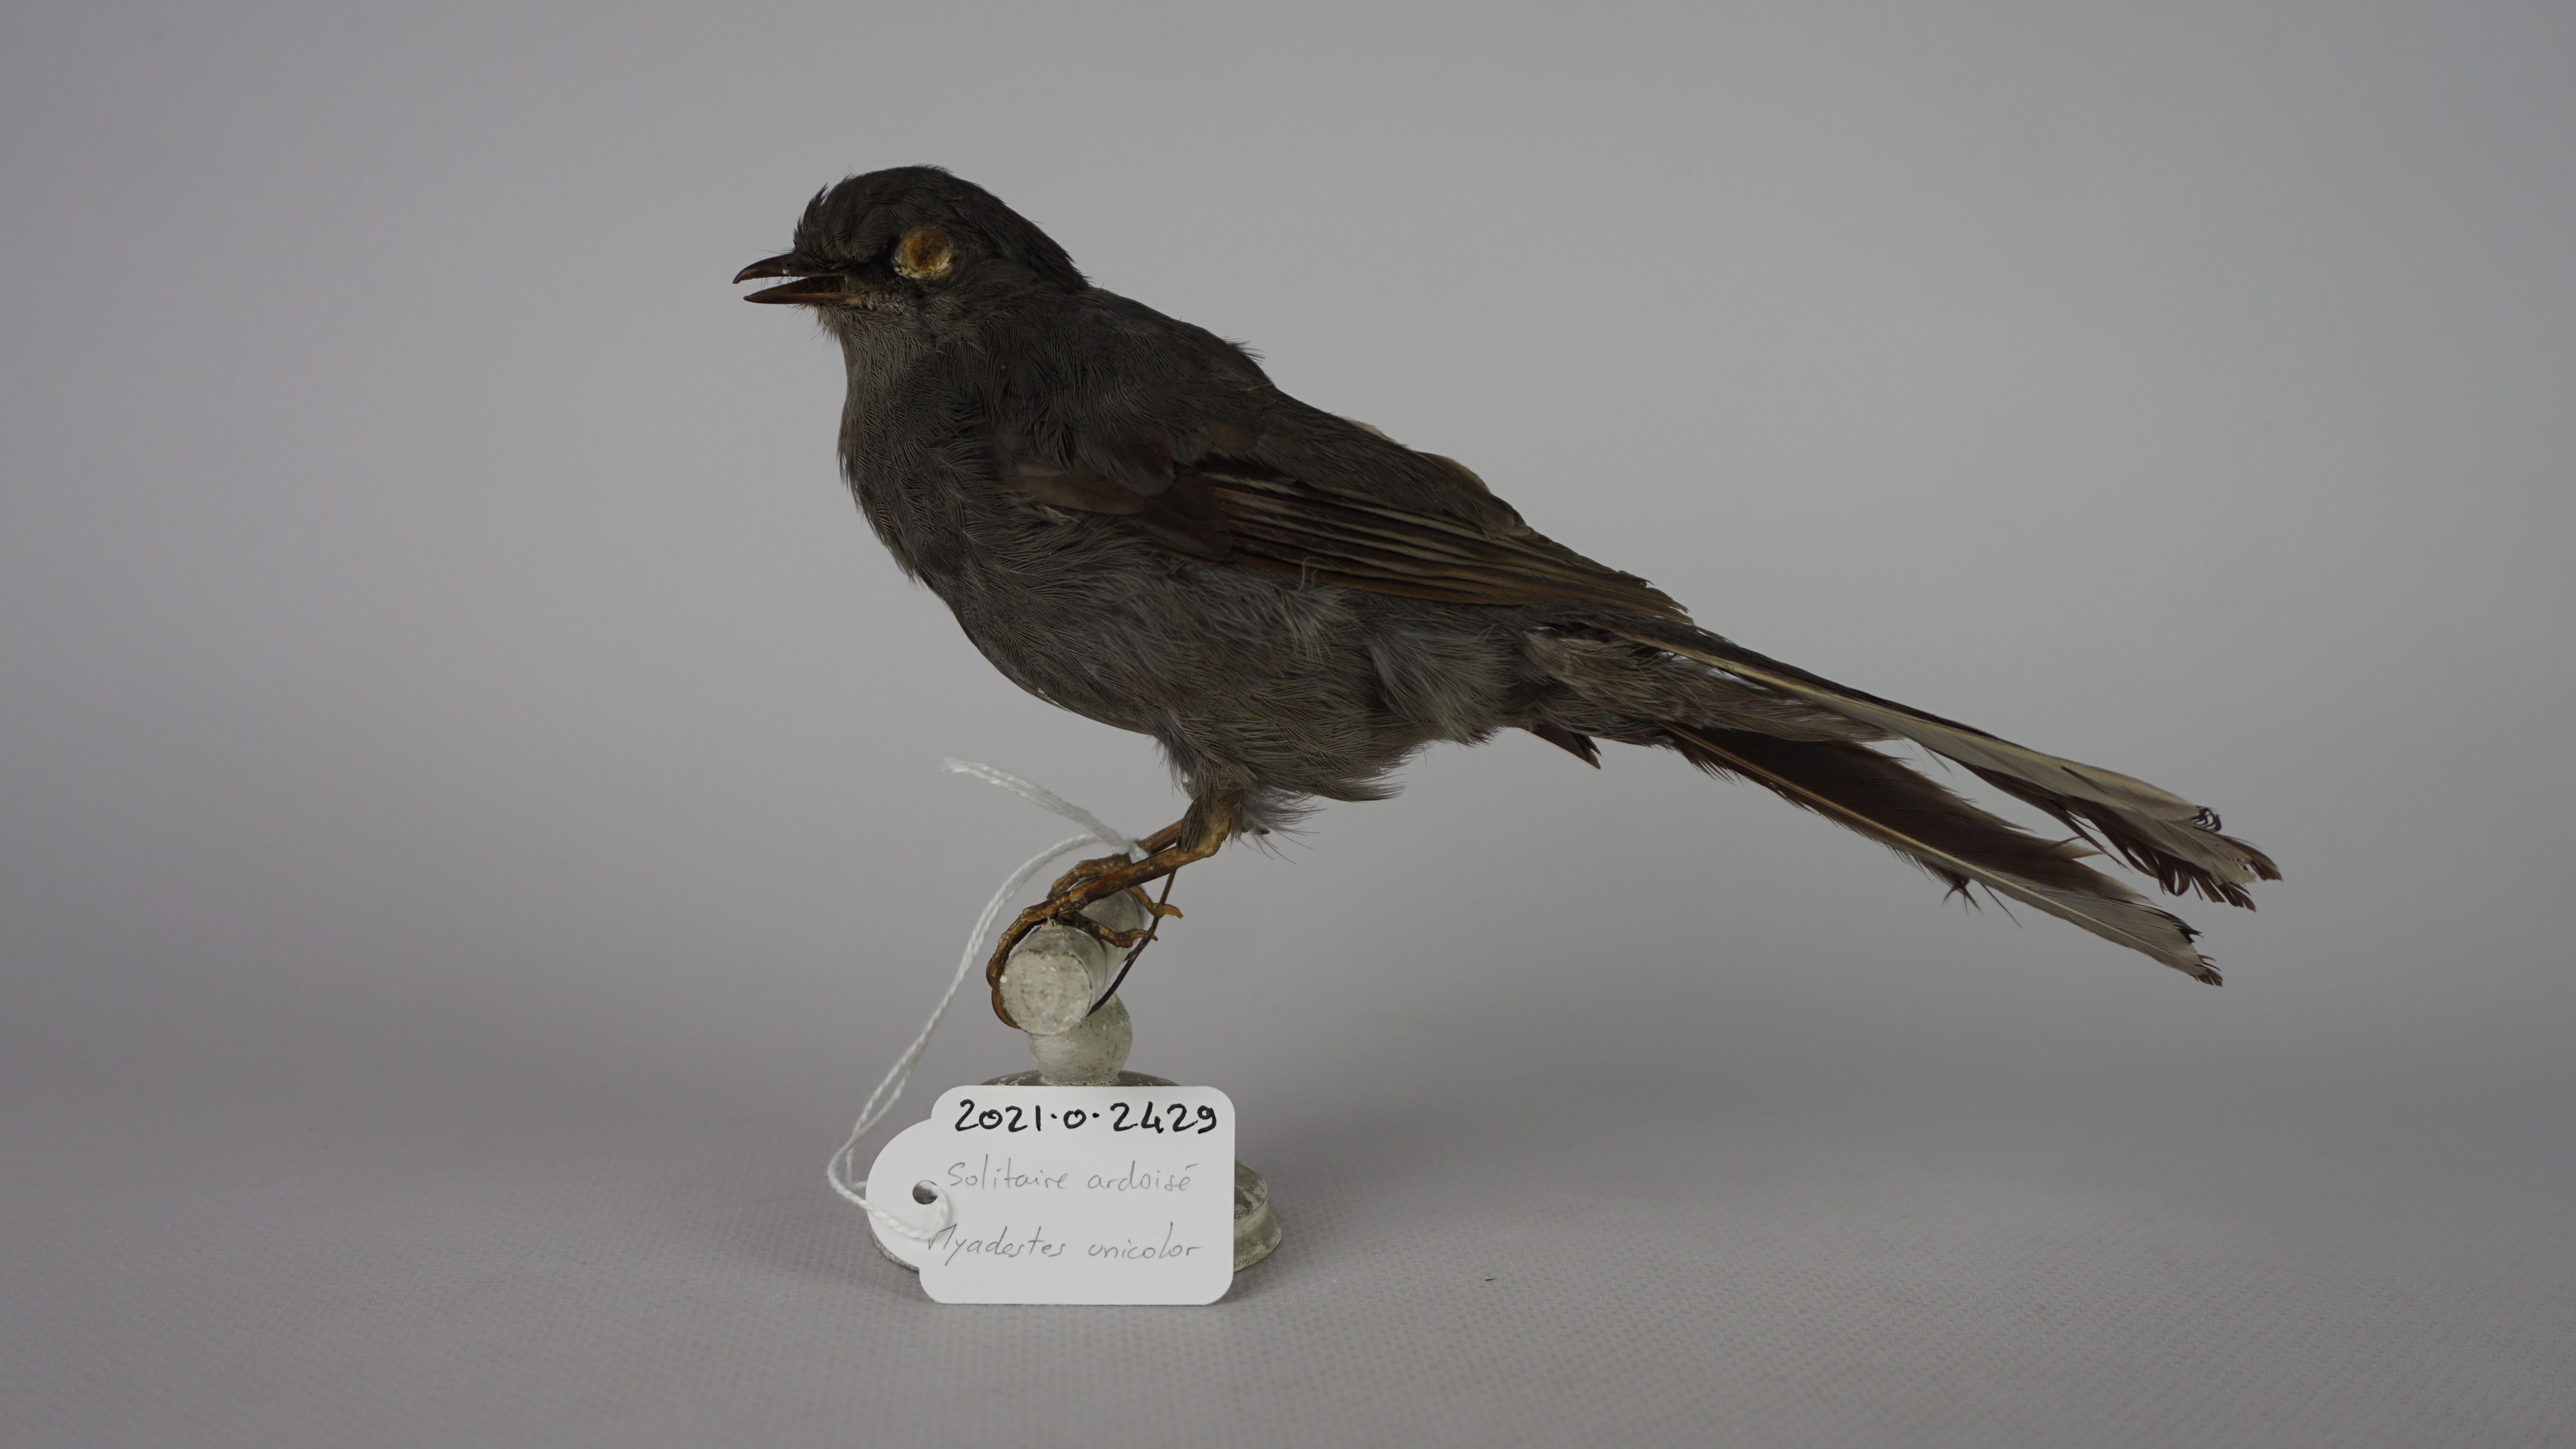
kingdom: Animalia
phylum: Chordata
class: Aves
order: Passeriformes
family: Turdidae
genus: Myadestes
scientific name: Myadestes unicolor
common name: Slate-colored solitaire
